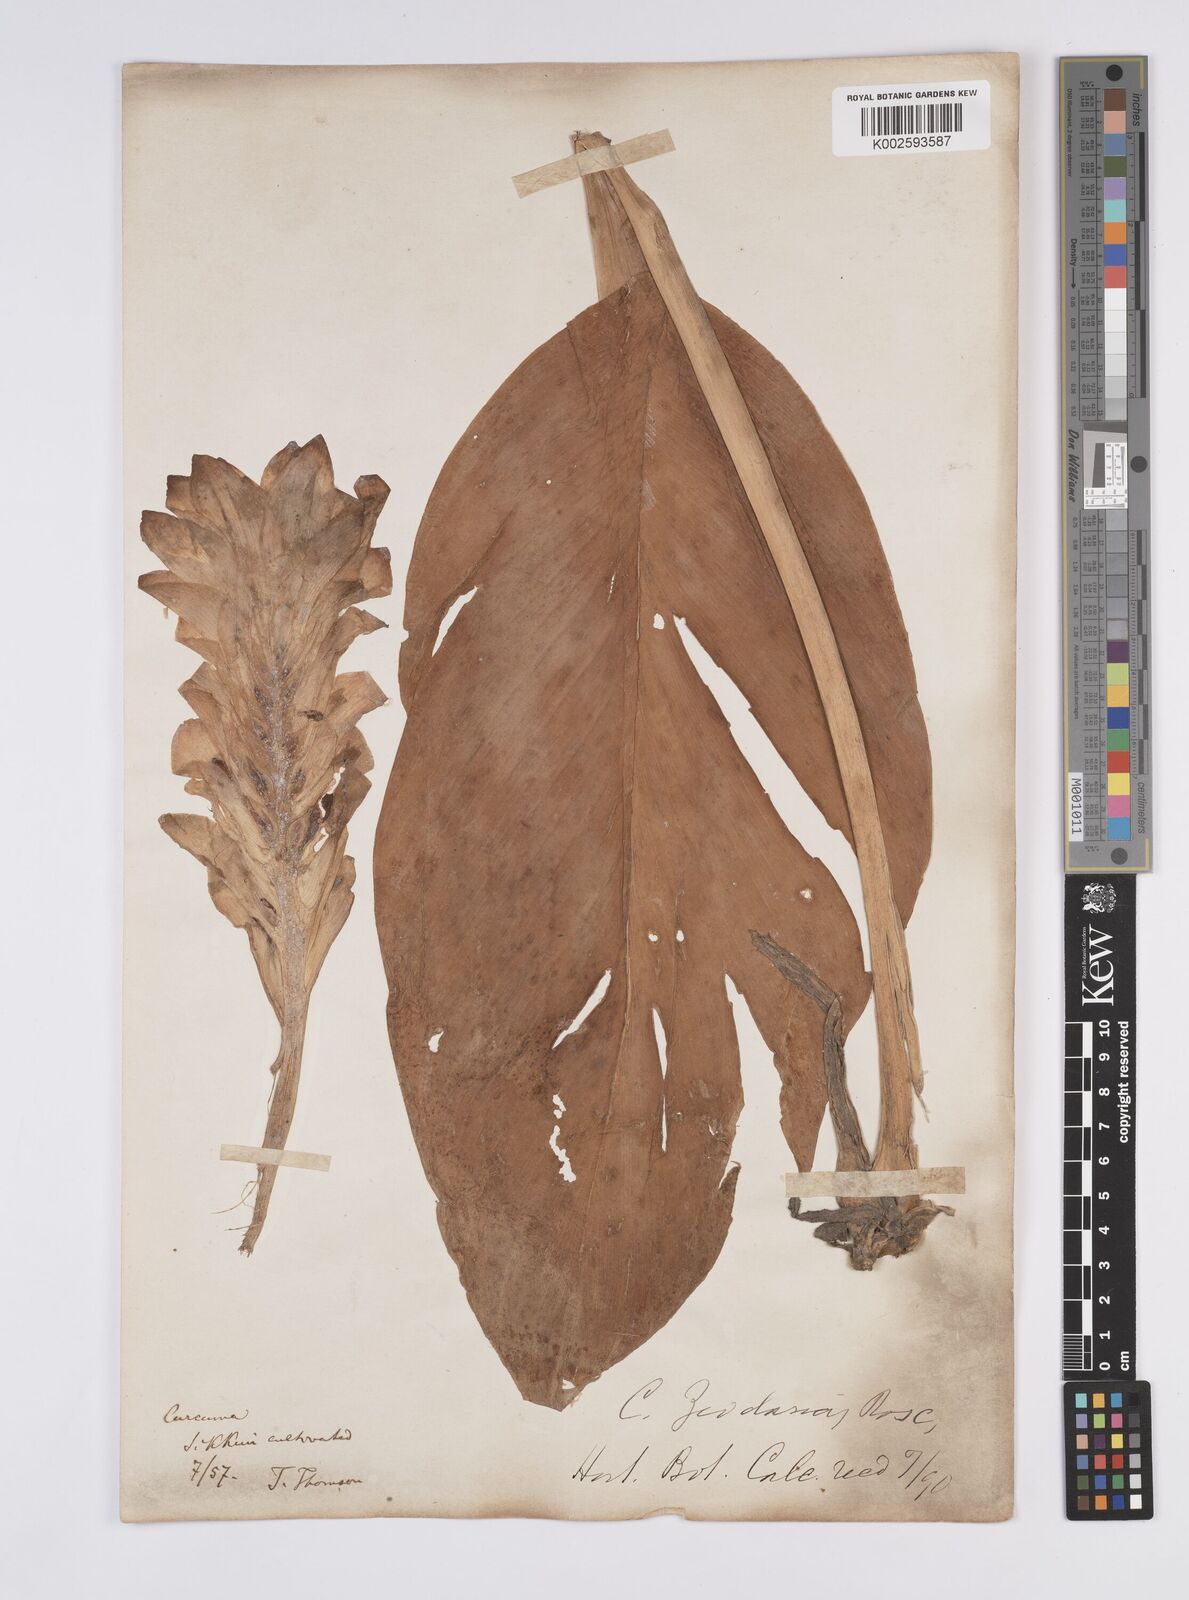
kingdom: Plantae
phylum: Tracheophyta
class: Liliopsida
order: Zingiberales
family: Zingiberaceae
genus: Curcuma
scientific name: Curcuma aromatica
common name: Wild turmeric
